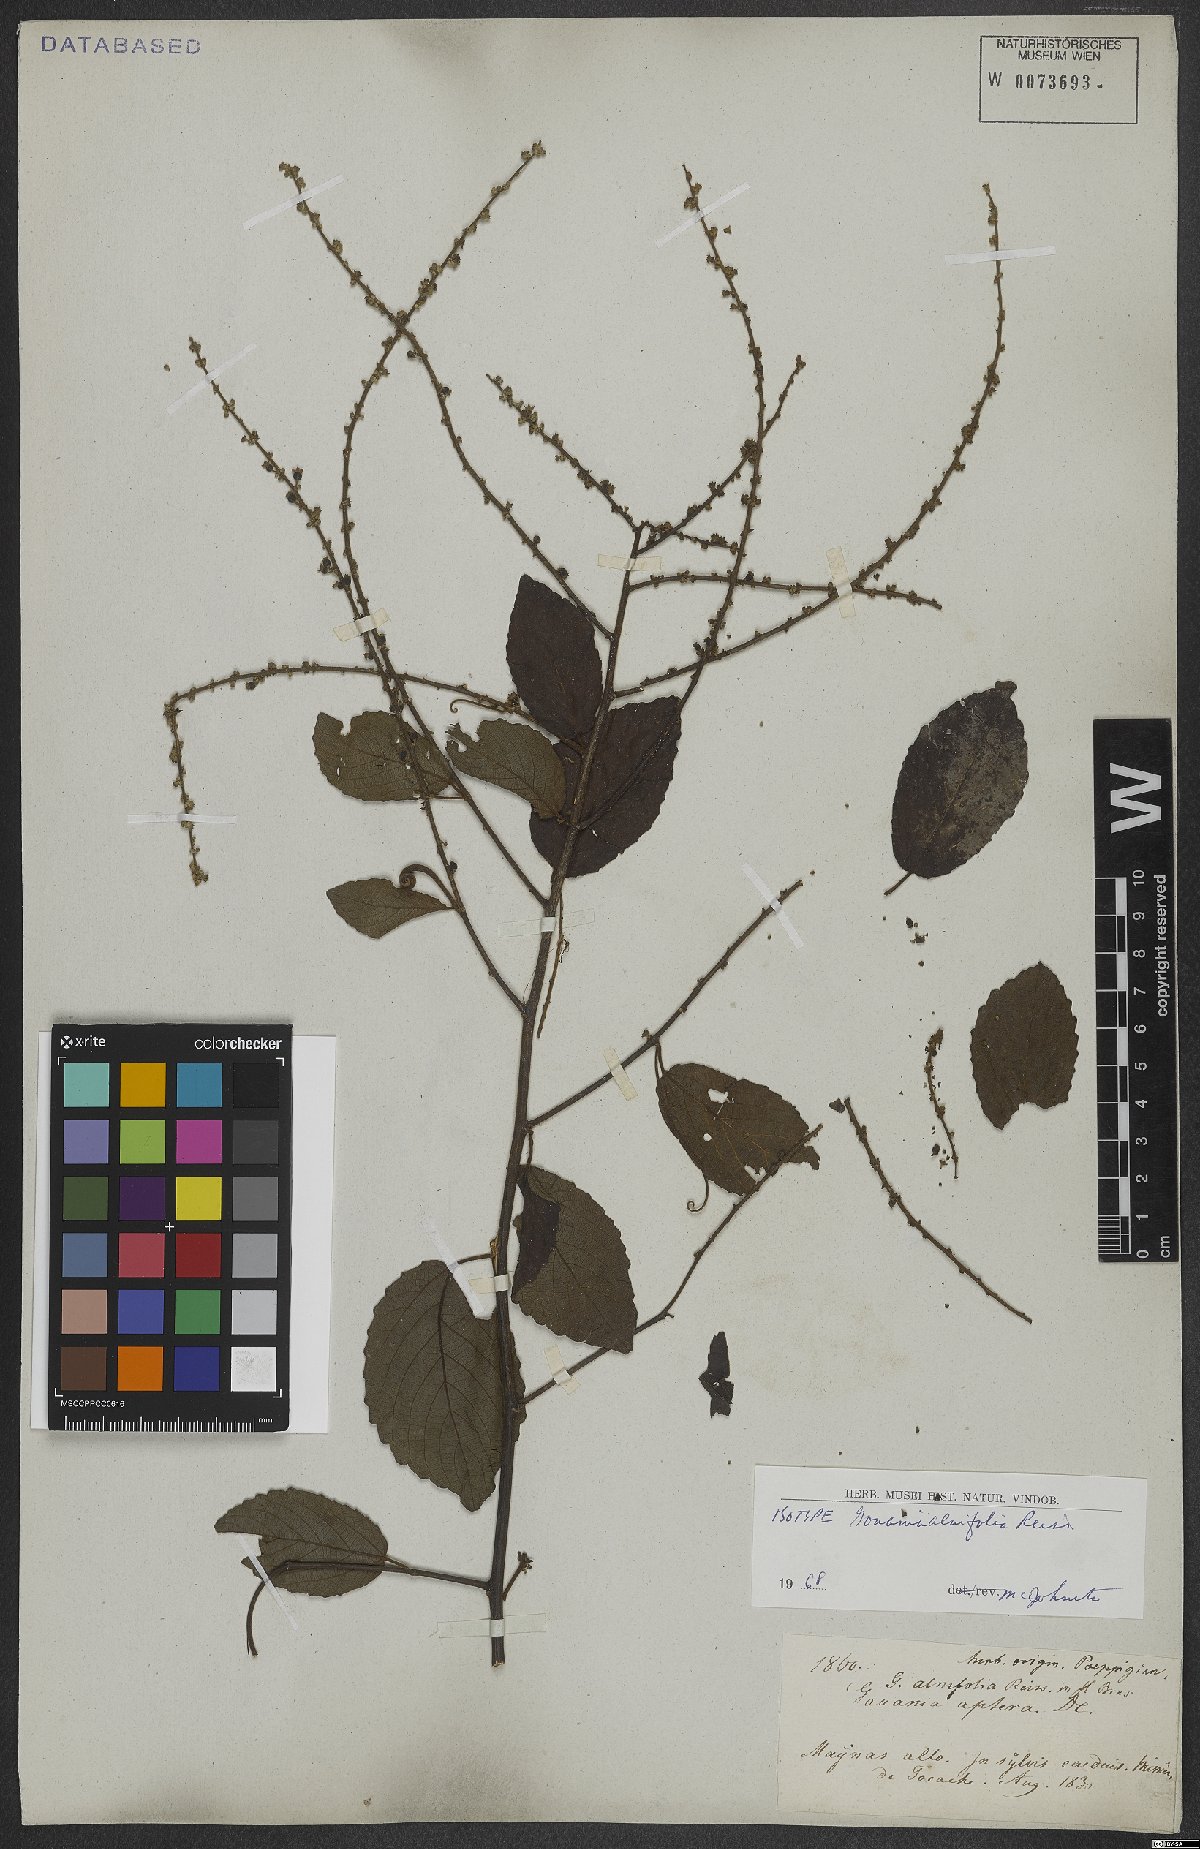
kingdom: Plantae
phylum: Tracheophyta
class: Magnoliopsida
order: Rosales
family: Rhamnaceae
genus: Gouania
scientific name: Gouania alnifolia
